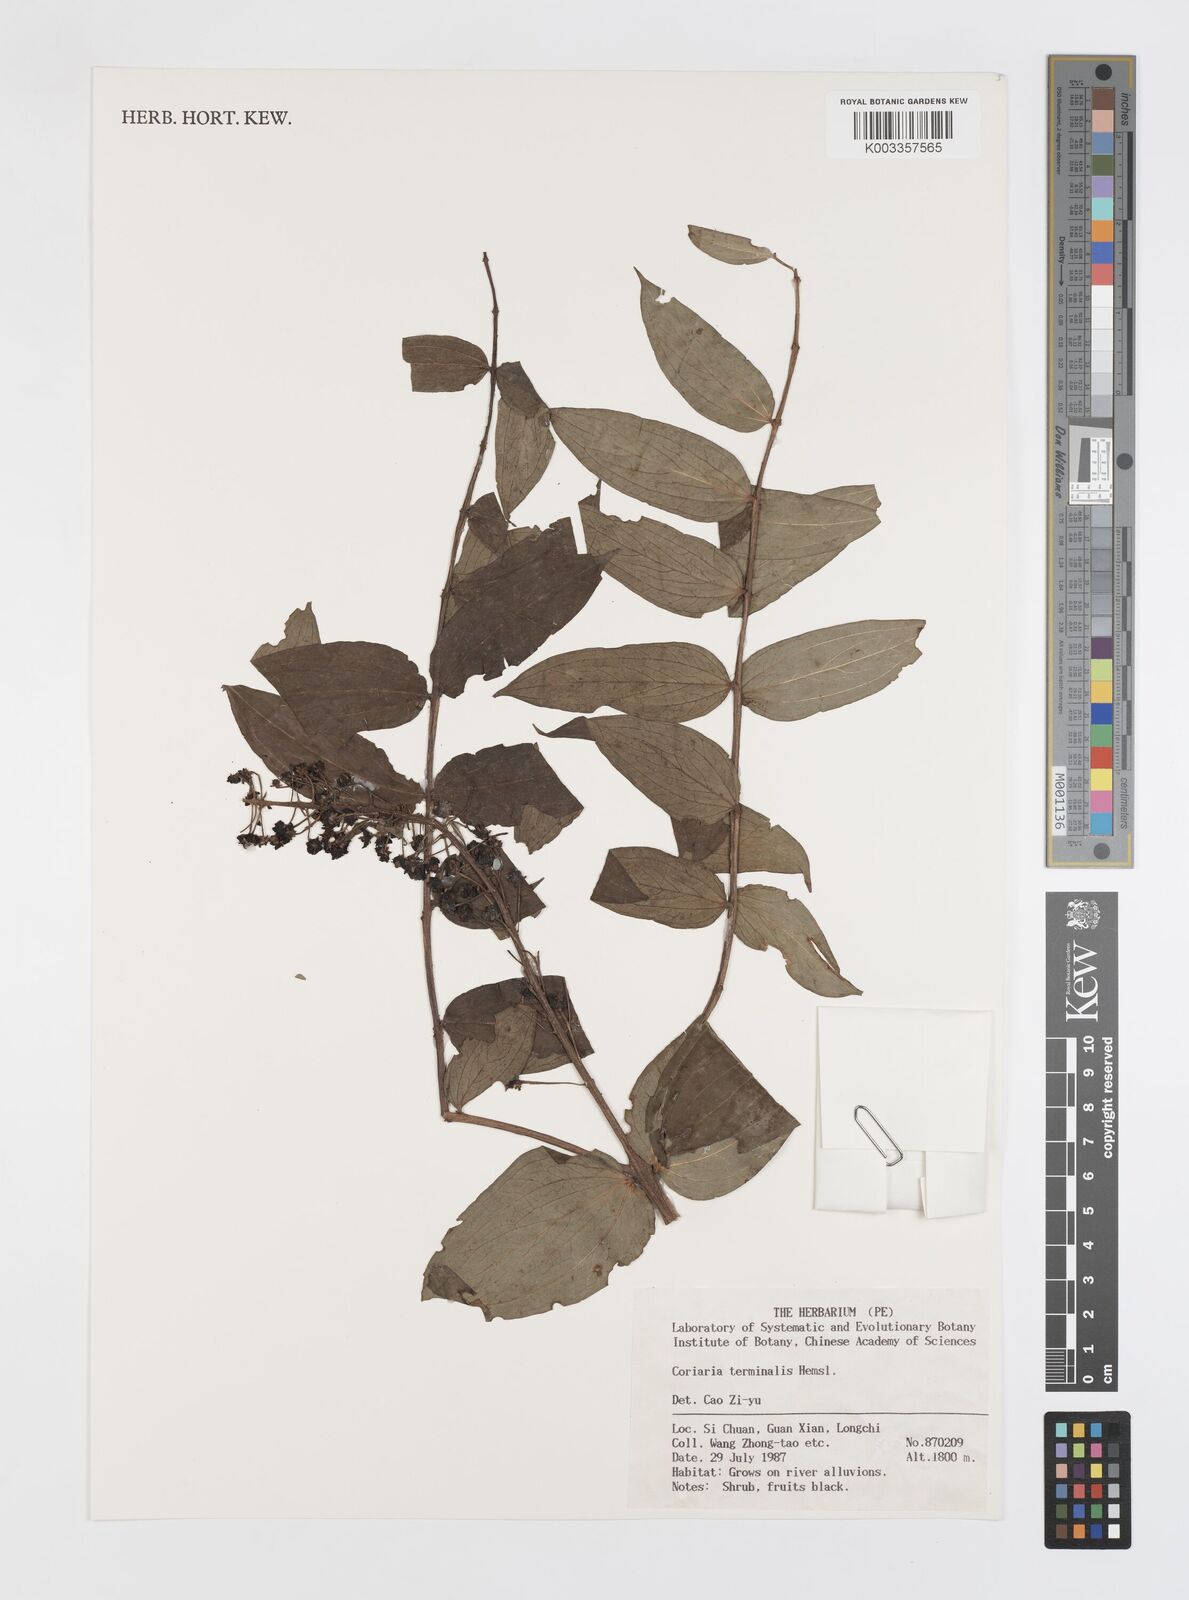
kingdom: Plantae
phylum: Tracheophyta
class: Magnoliopsida
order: Cucurbitales
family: Coriariaceae
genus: Coriaria
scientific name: Coriaria terminalis
